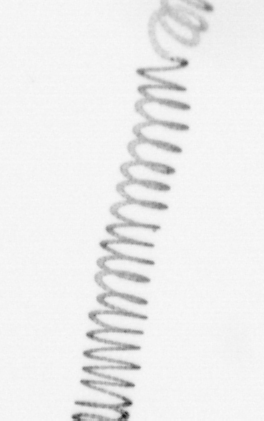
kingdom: Chromista
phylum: Ochrophyta
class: Bacillariophyceae
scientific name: Bacillariophyceae
